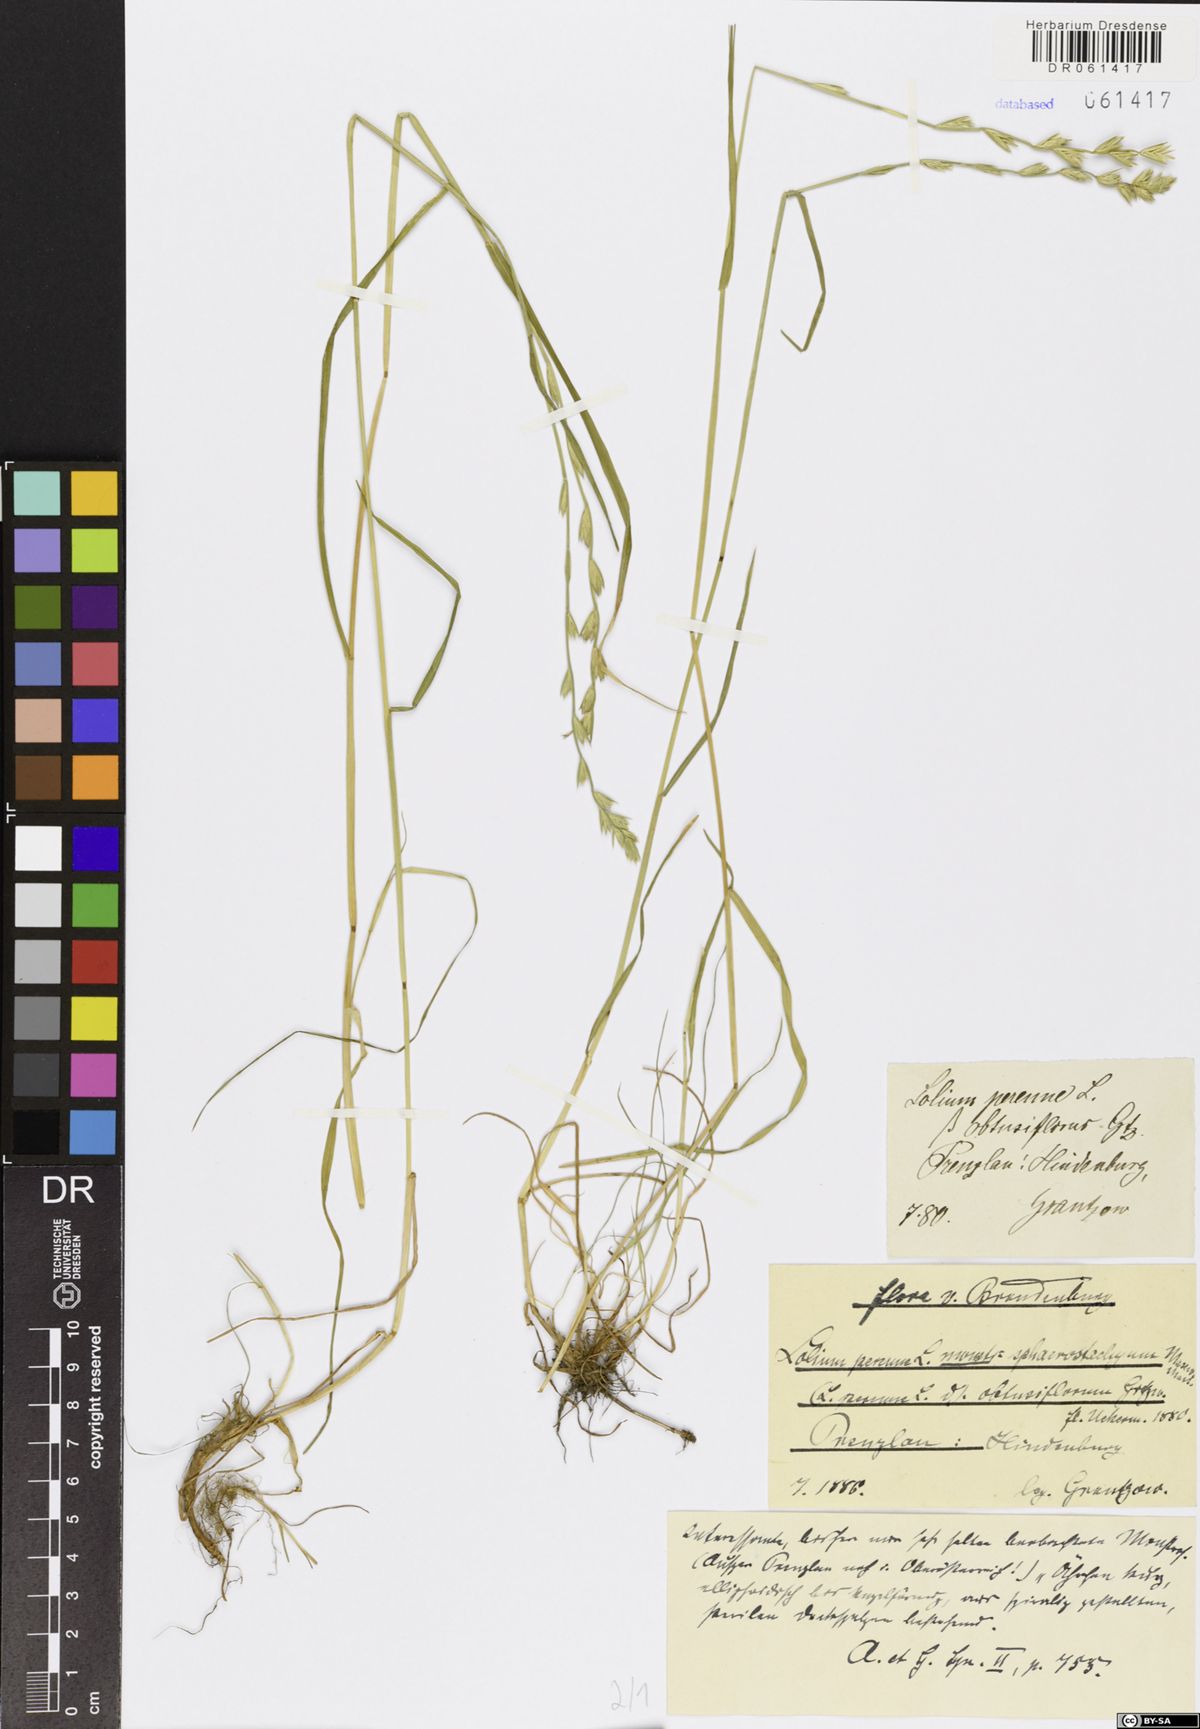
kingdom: Plantae
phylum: Tracheophyta
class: Liliopsida
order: Poales
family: Poaceae
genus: Lolium
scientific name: Lolium perenne
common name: Perennial ryegrass
